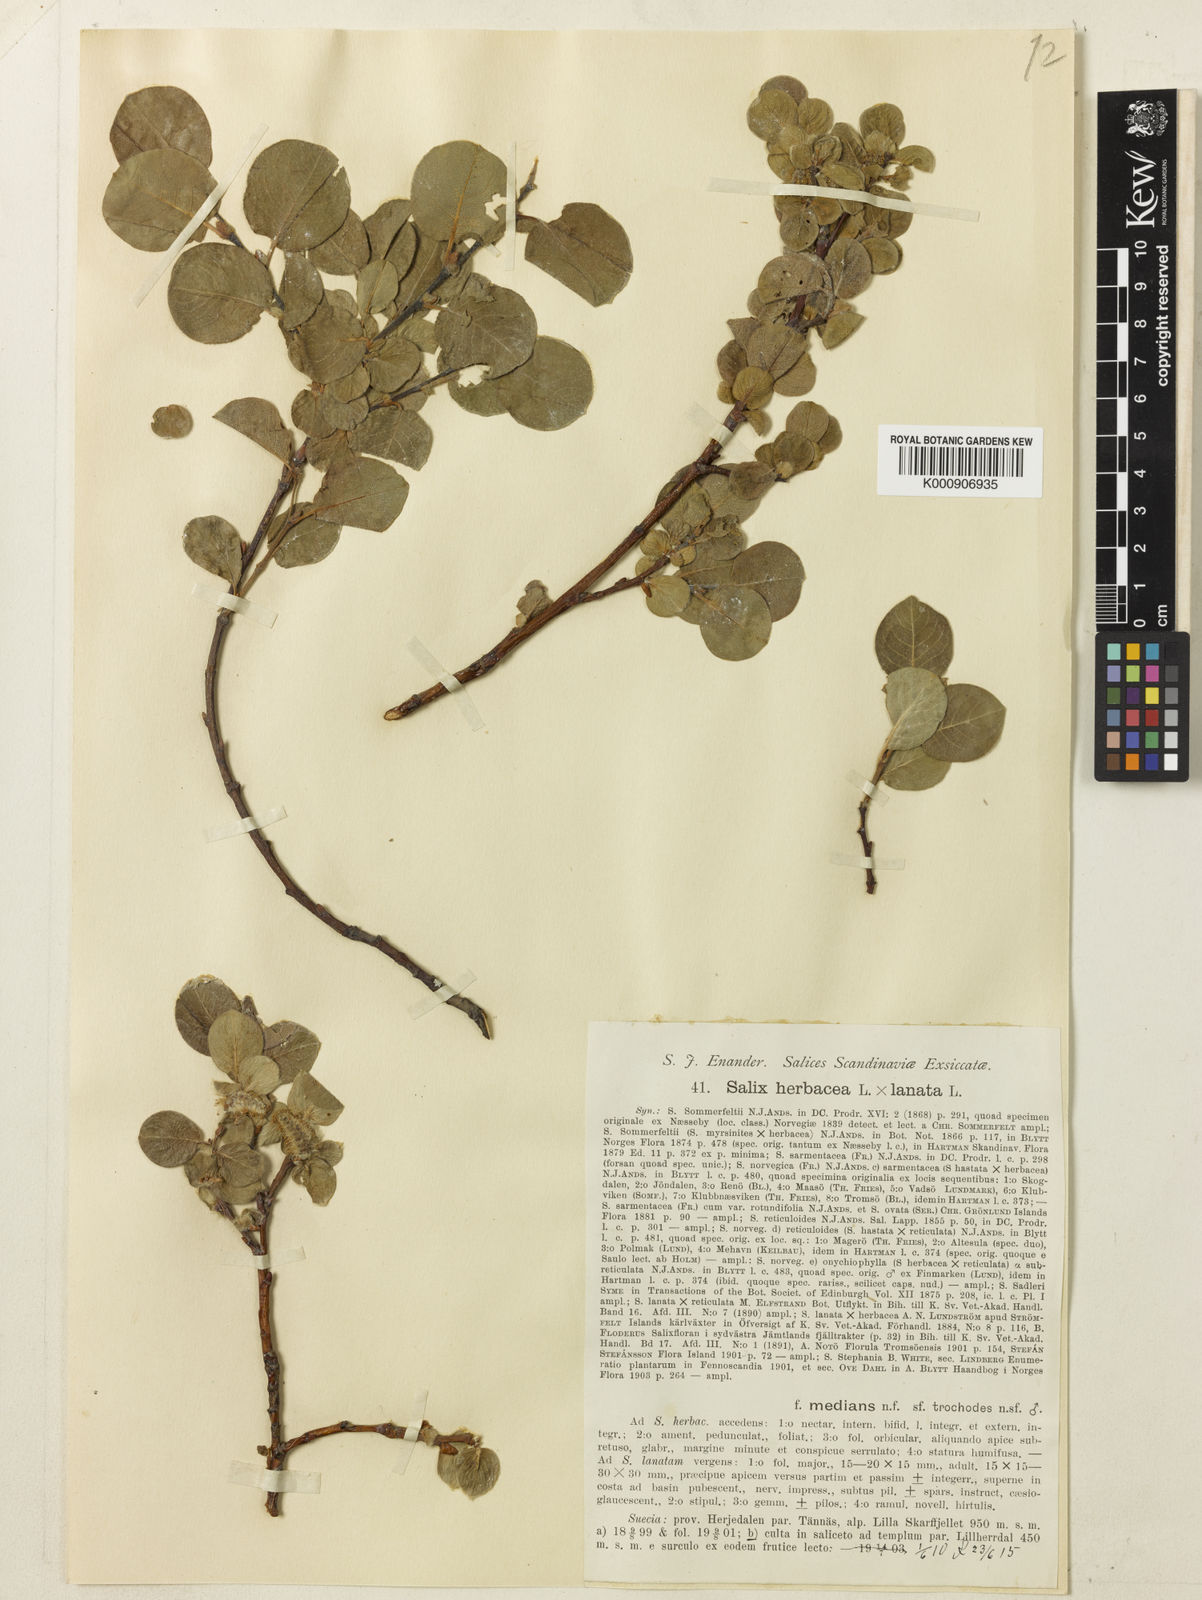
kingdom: Plantae
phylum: Tracheophyta
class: Magnoliopsida
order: Malpighiales
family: Salicaceae
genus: Salix
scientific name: Salix herbacea
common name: Dwarf willow
